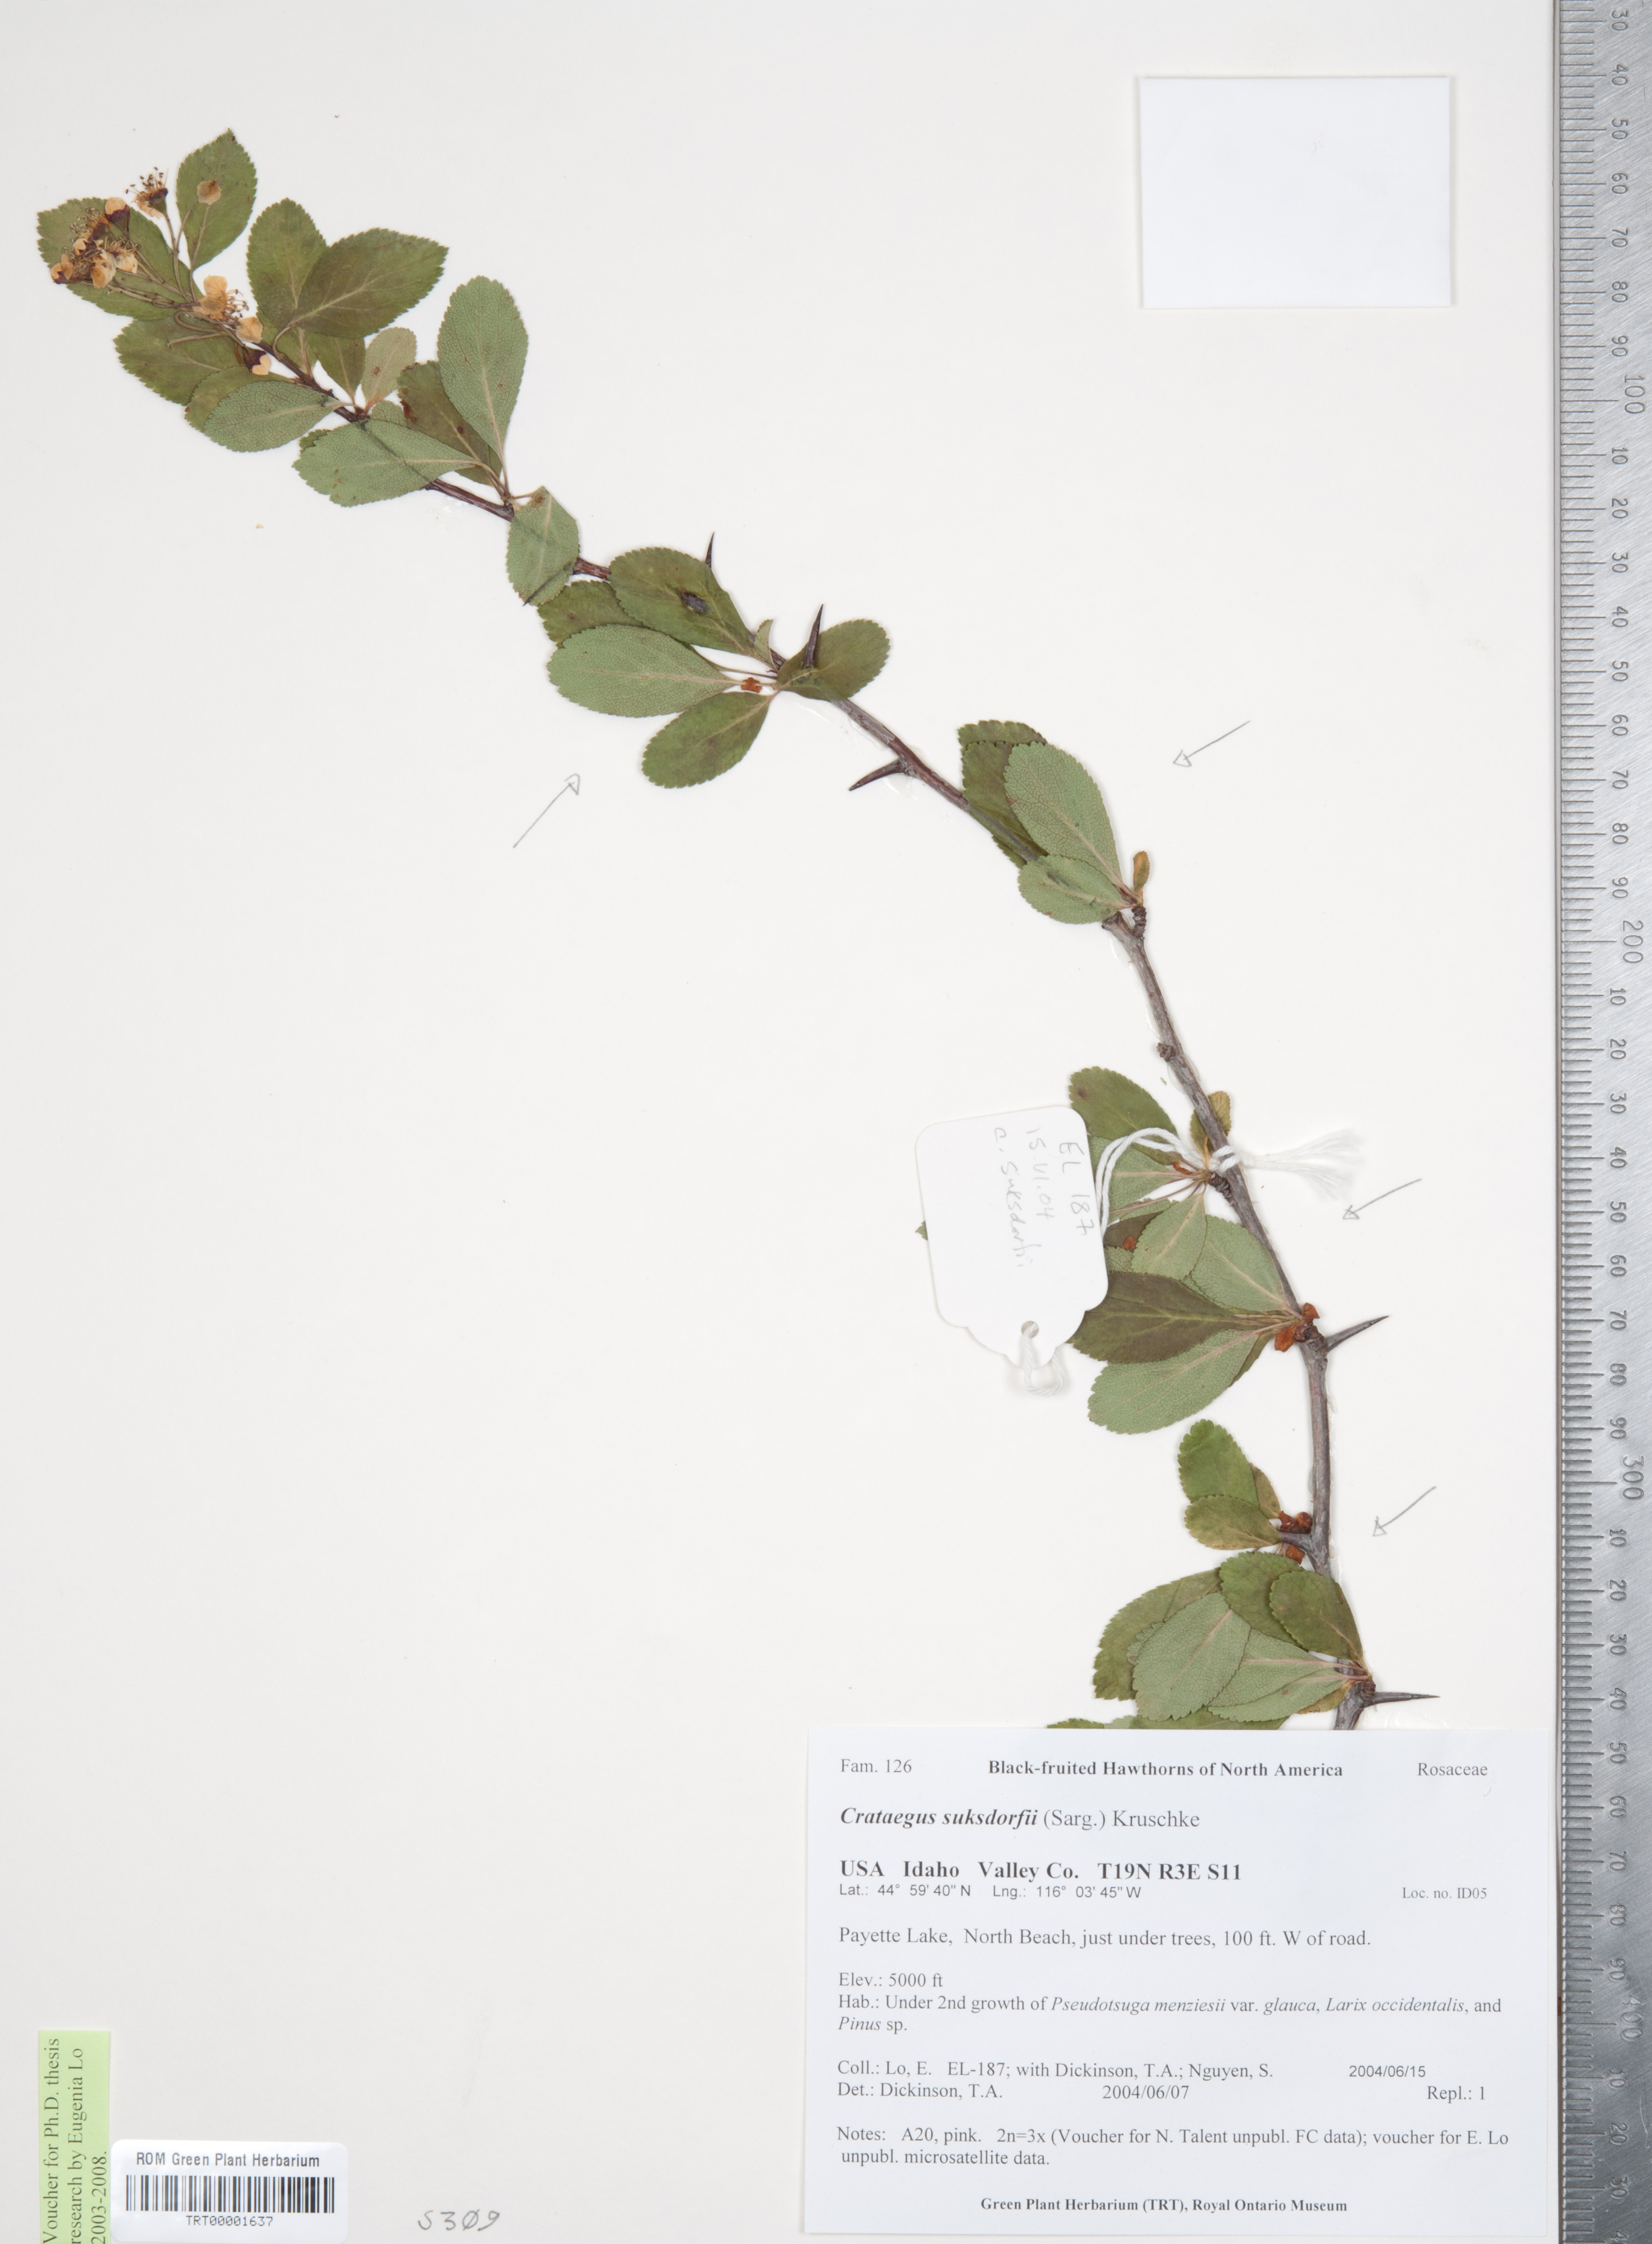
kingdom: Plantae
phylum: Tracheophyta
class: Magnoliopsida
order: Rosales
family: Rosaceae
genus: Crataegus
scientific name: Crataegus gaylussacia
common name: Huckleberry hawthorn
